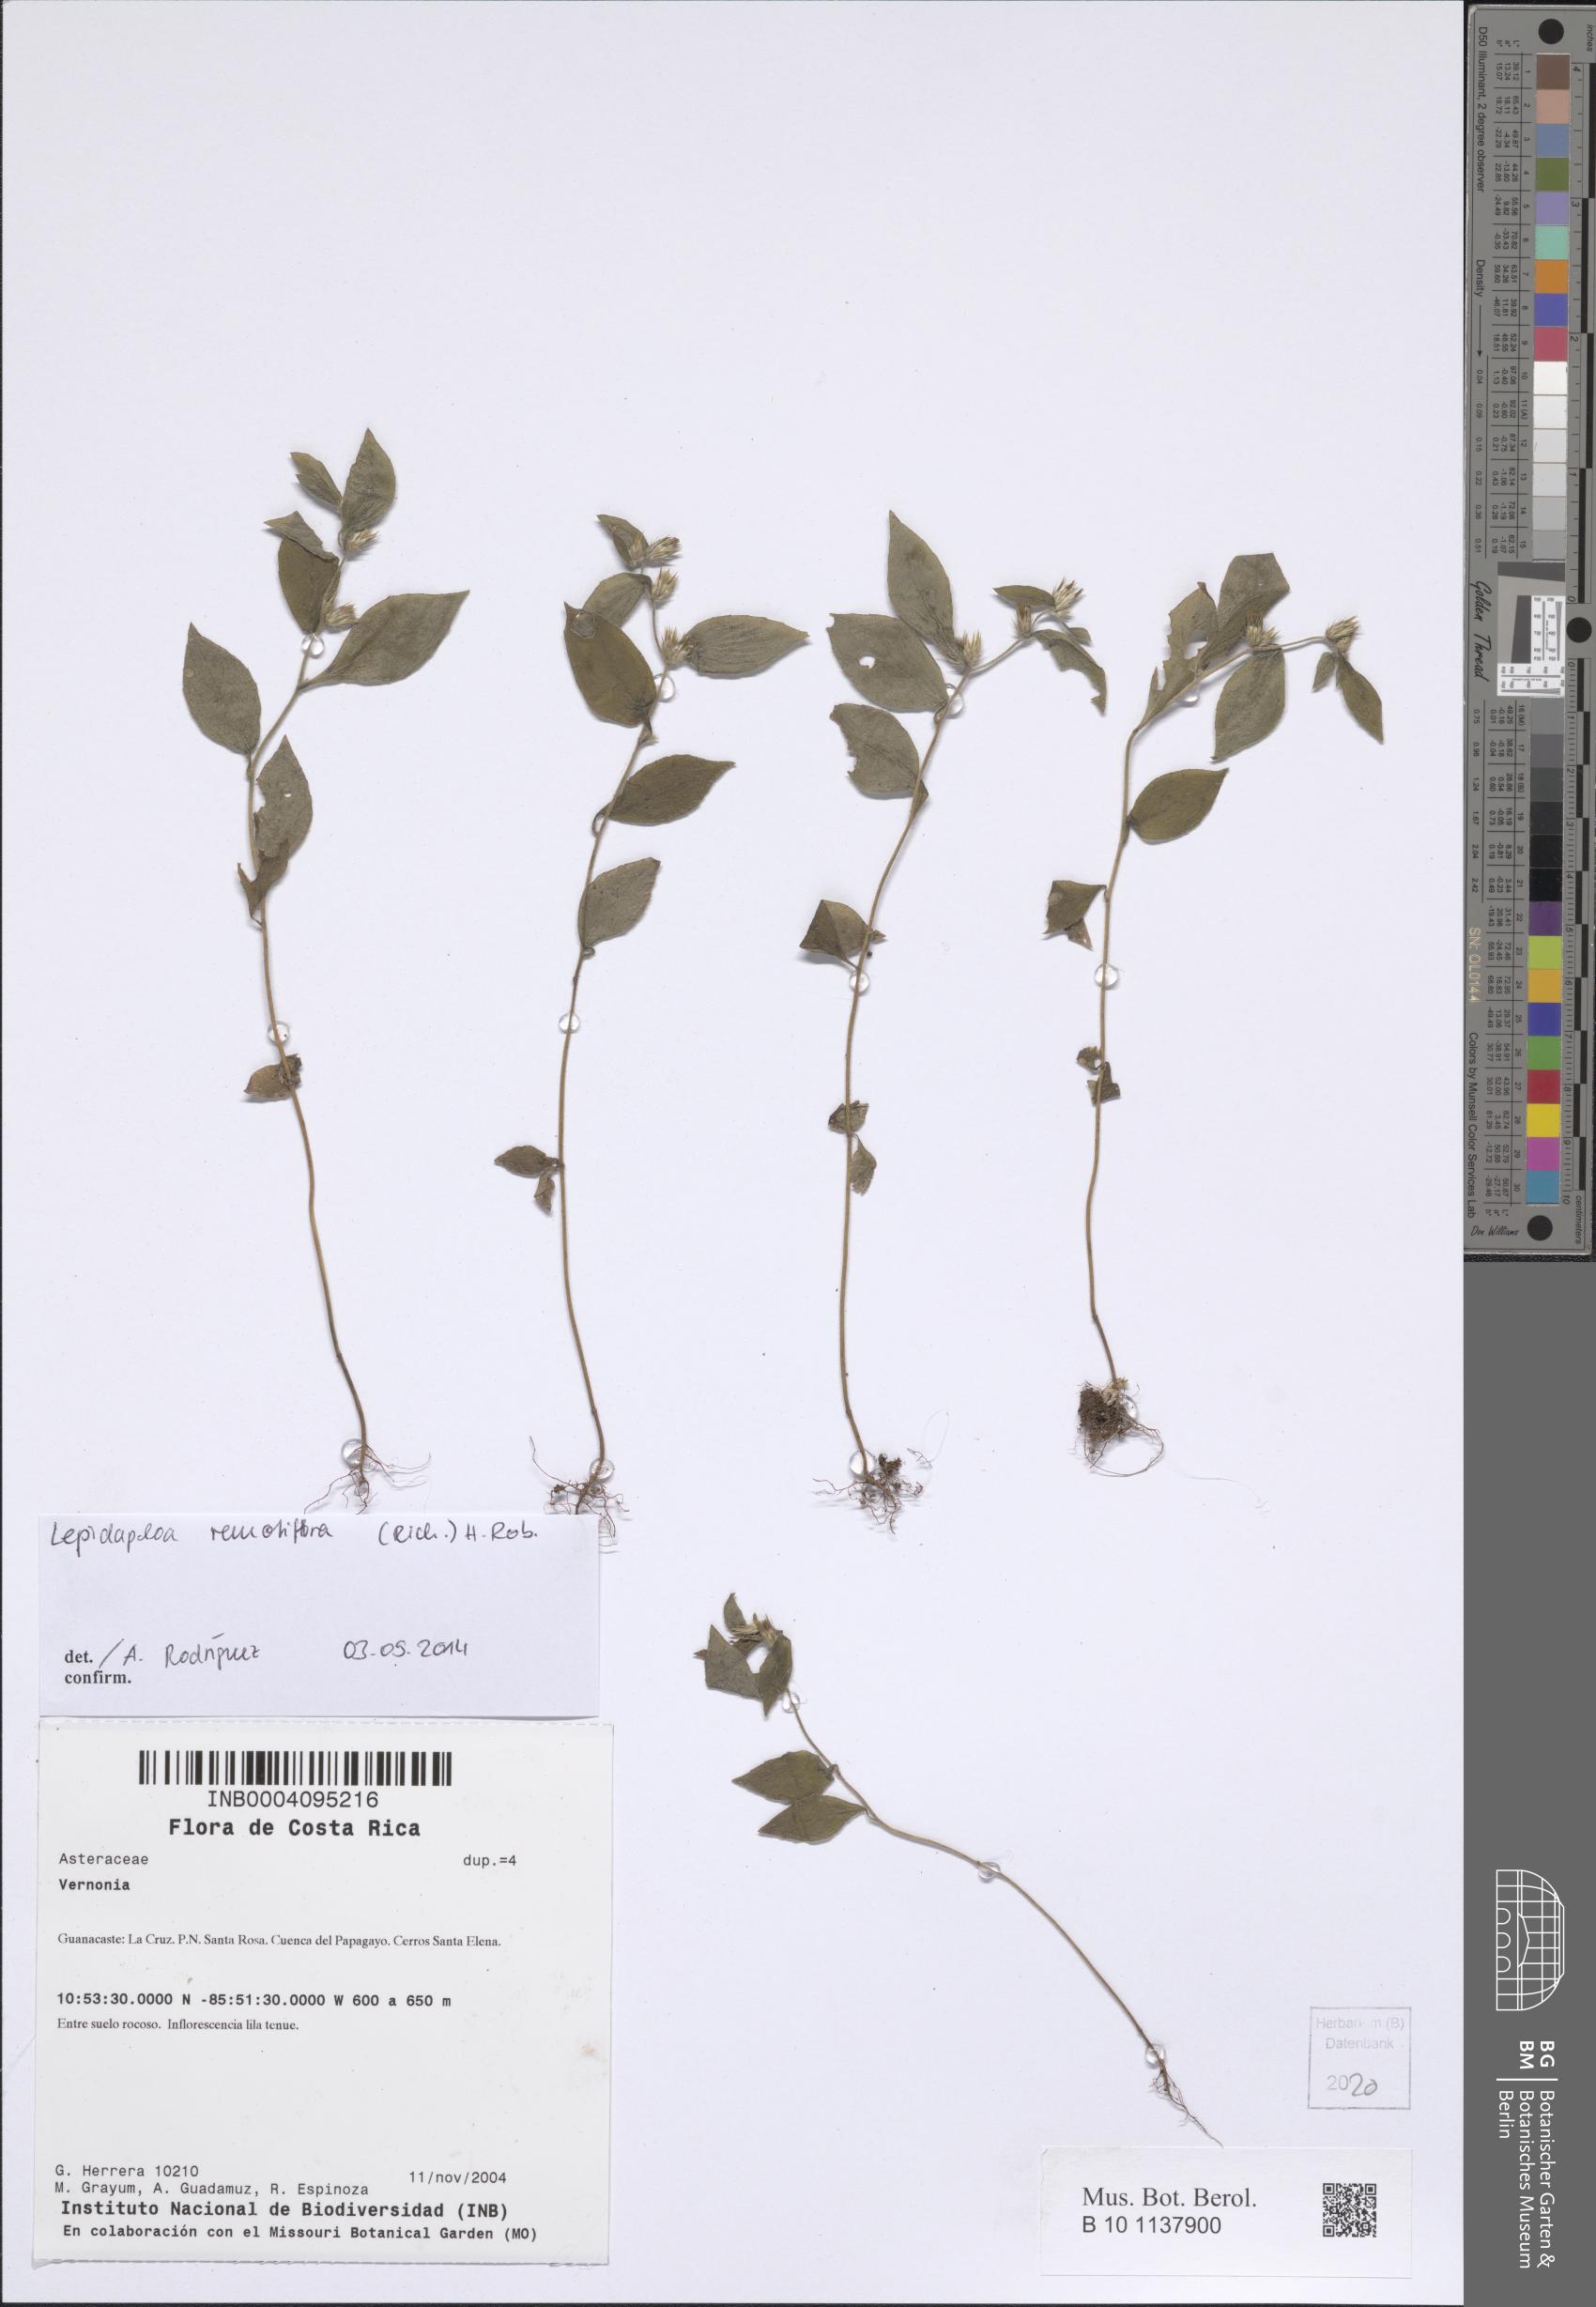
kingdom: Plantae
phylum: Tracheophyta
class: Magnoliopsida
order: Asterales
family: Asteraceae
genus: Lepidaploa
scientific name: Lepidaploa remotiflora
